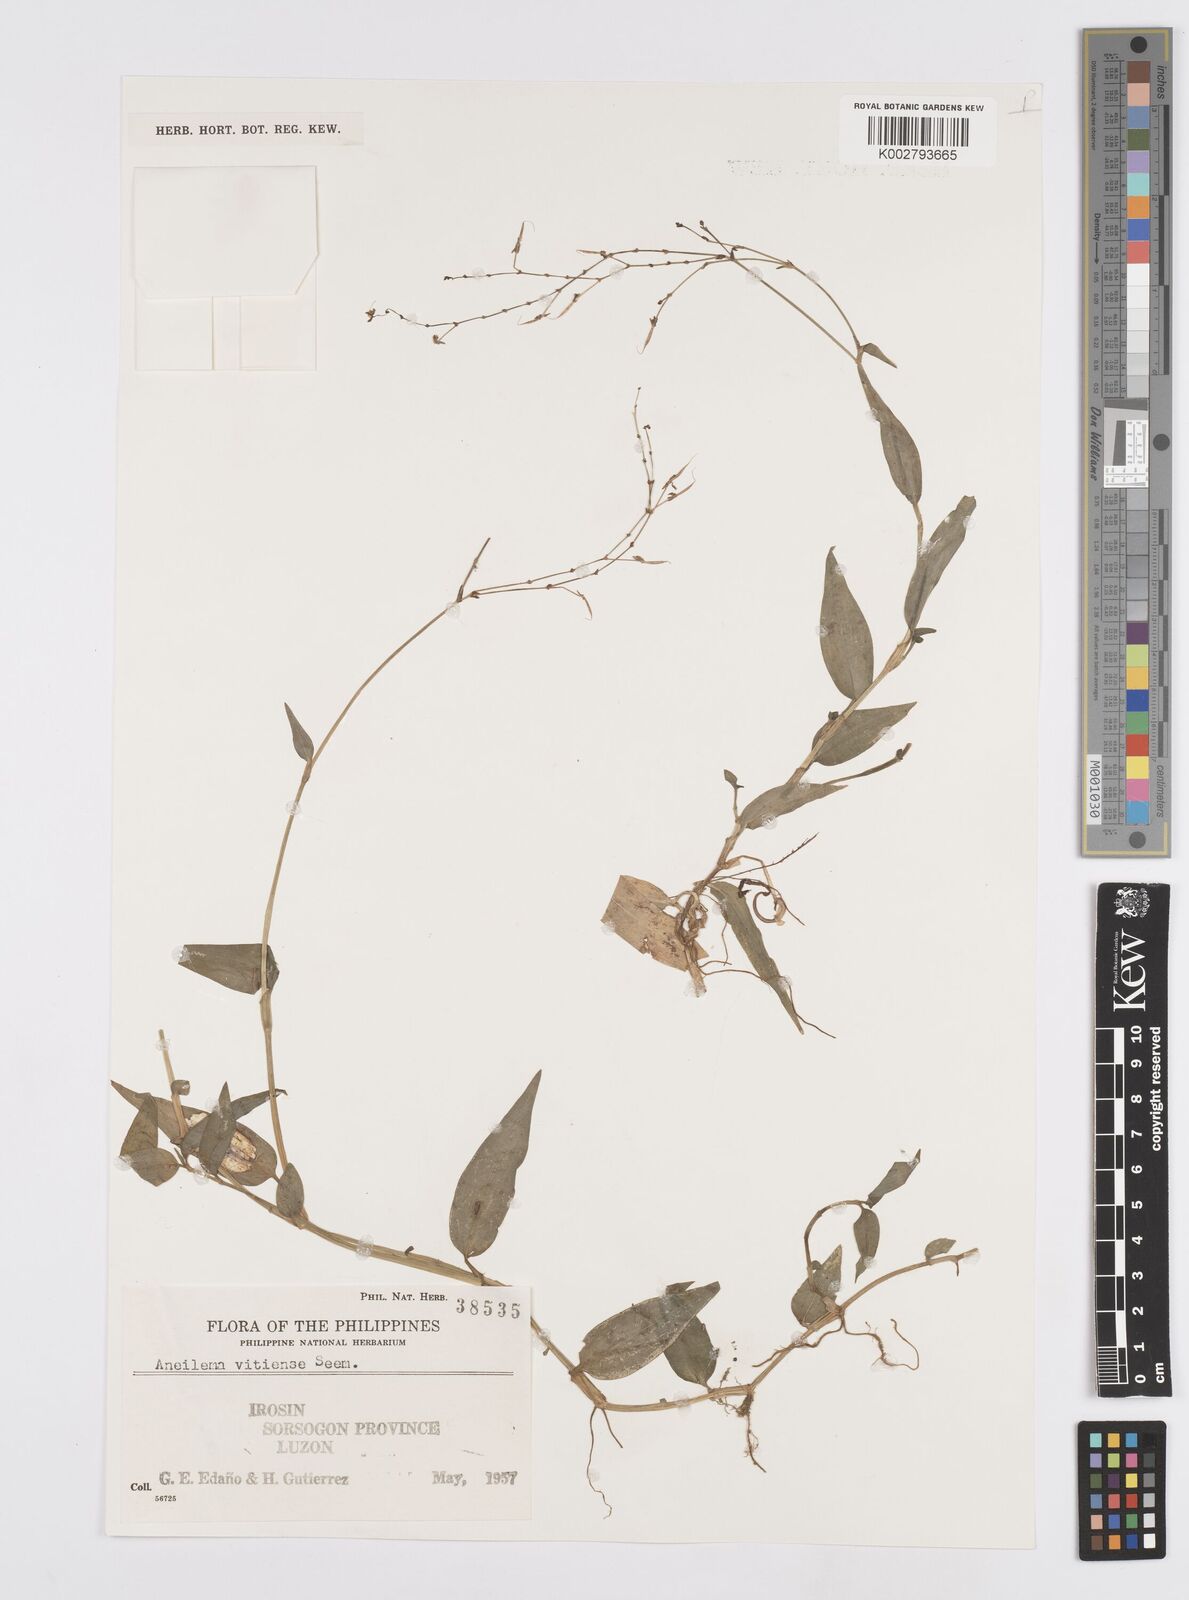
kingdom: Plantae
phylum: Tracheophyta
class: Liliopsida
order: Commelinales
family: Commelinaceae
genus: Murdannia
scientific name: Murdannia
